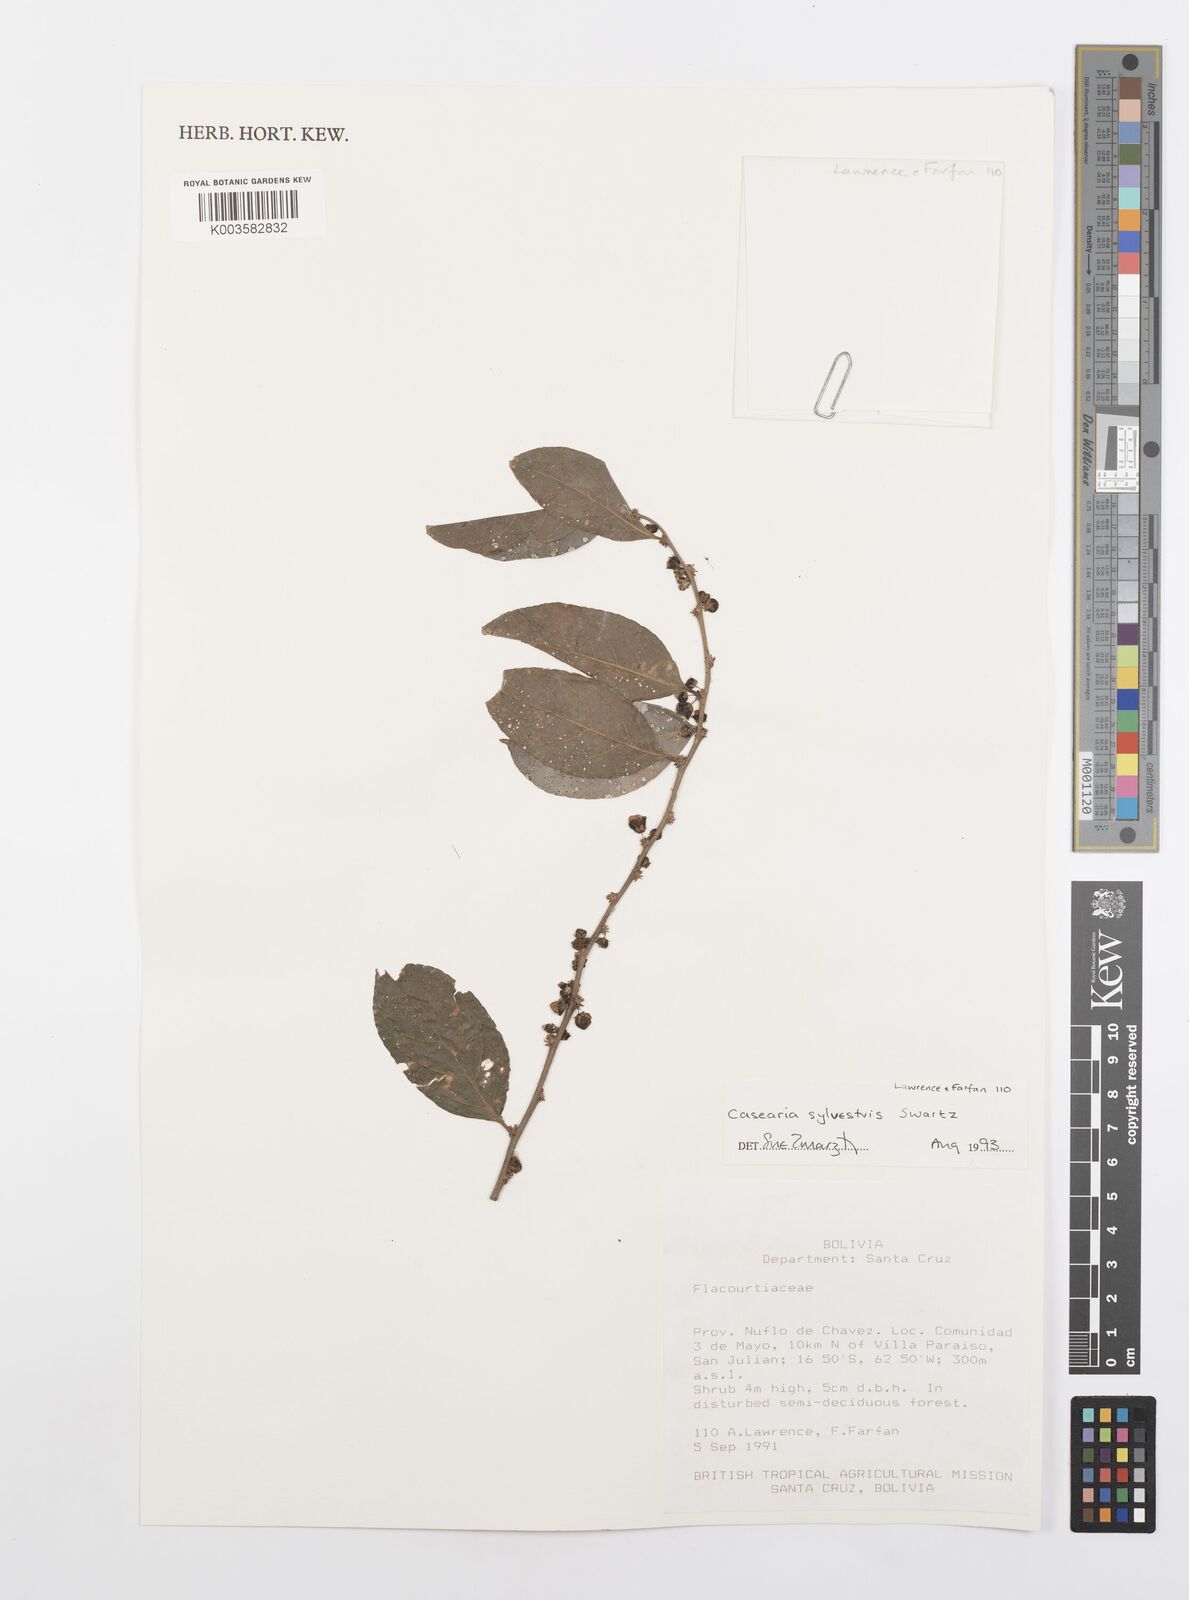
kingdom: Plantae
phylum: Tracheophyta
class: Magnoliopsida
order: Malpighiales
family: Salicaceae
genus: Casearia
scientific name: Casearia sylvestris
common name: Wild sage
